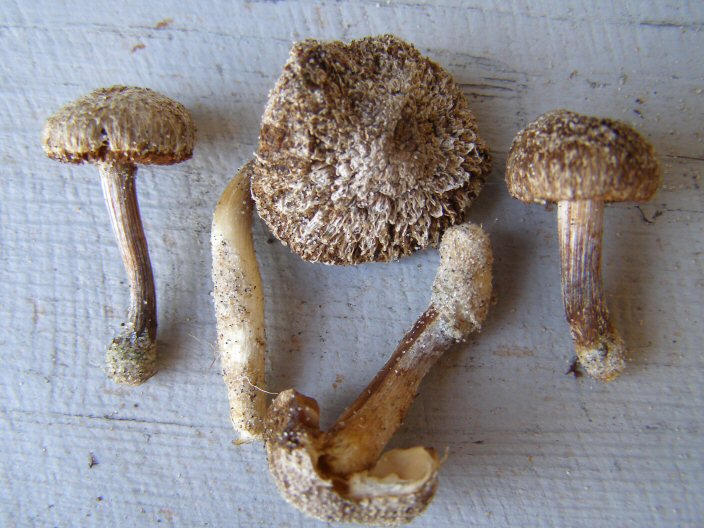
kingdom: Fungi
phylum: Basidiomycota
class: Agaricomycetes
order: Agaricales
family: Inocybaceae
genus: Inocybe
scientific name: Inocybe similis
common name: klit-trævlhat
